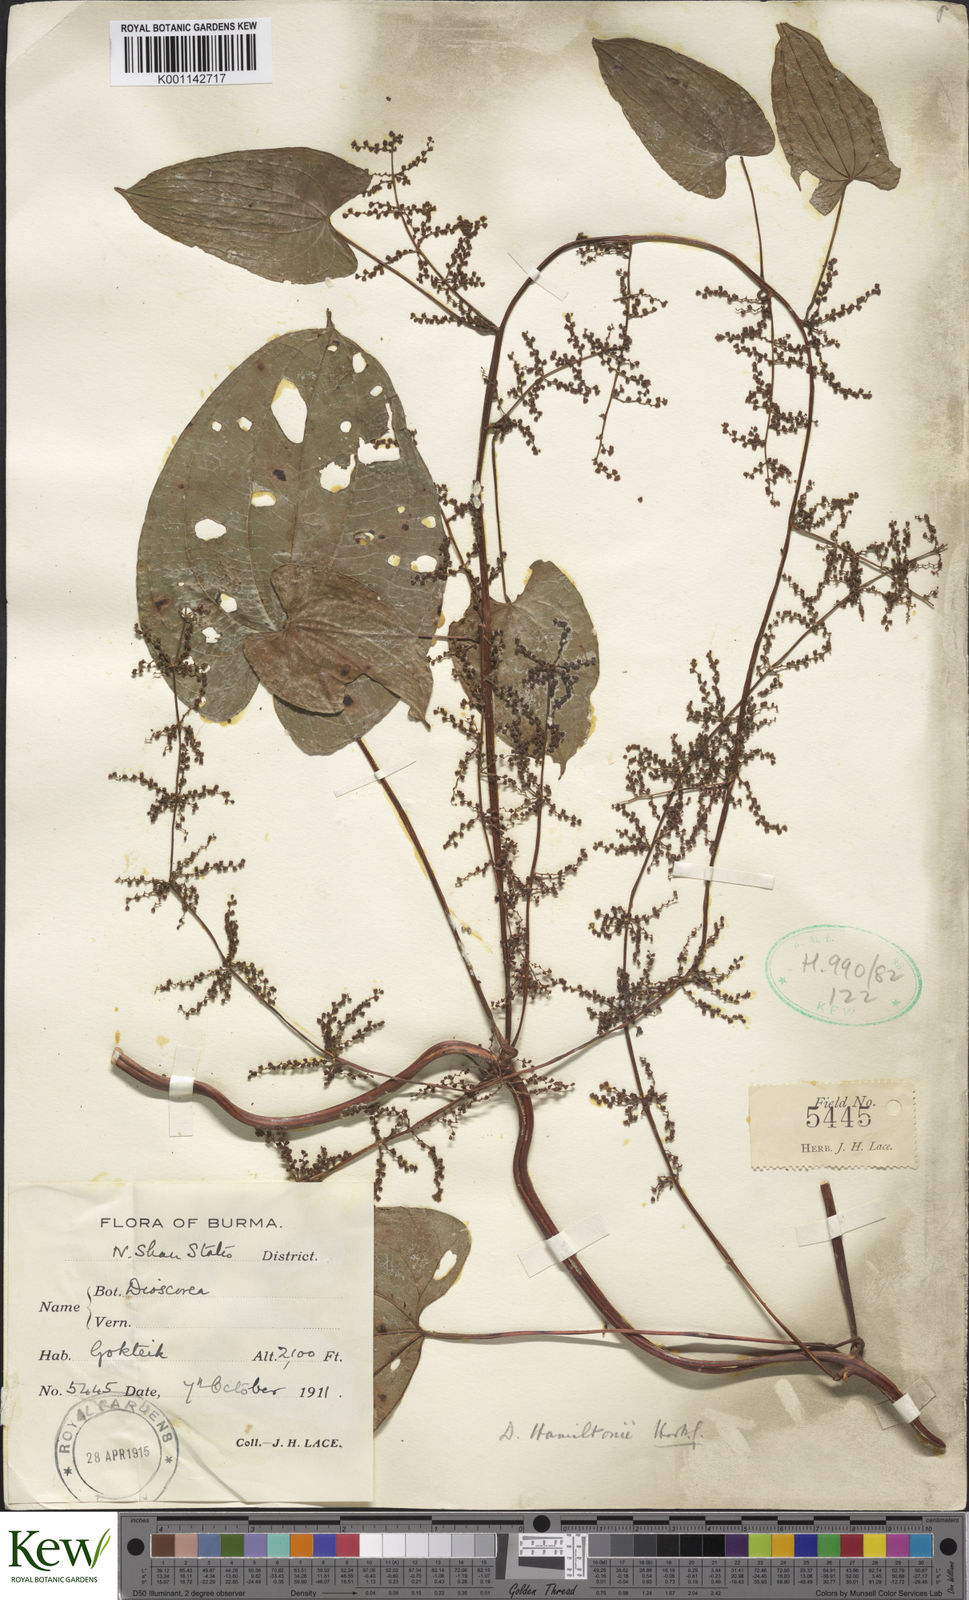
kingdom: Plantae
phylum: Tracheophyta
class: Liliopsida
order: Dioscoreales
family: Dioscoreaceae
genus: Dioscorea
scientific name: Dioscorea hamiltonii
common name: Mountain yam
